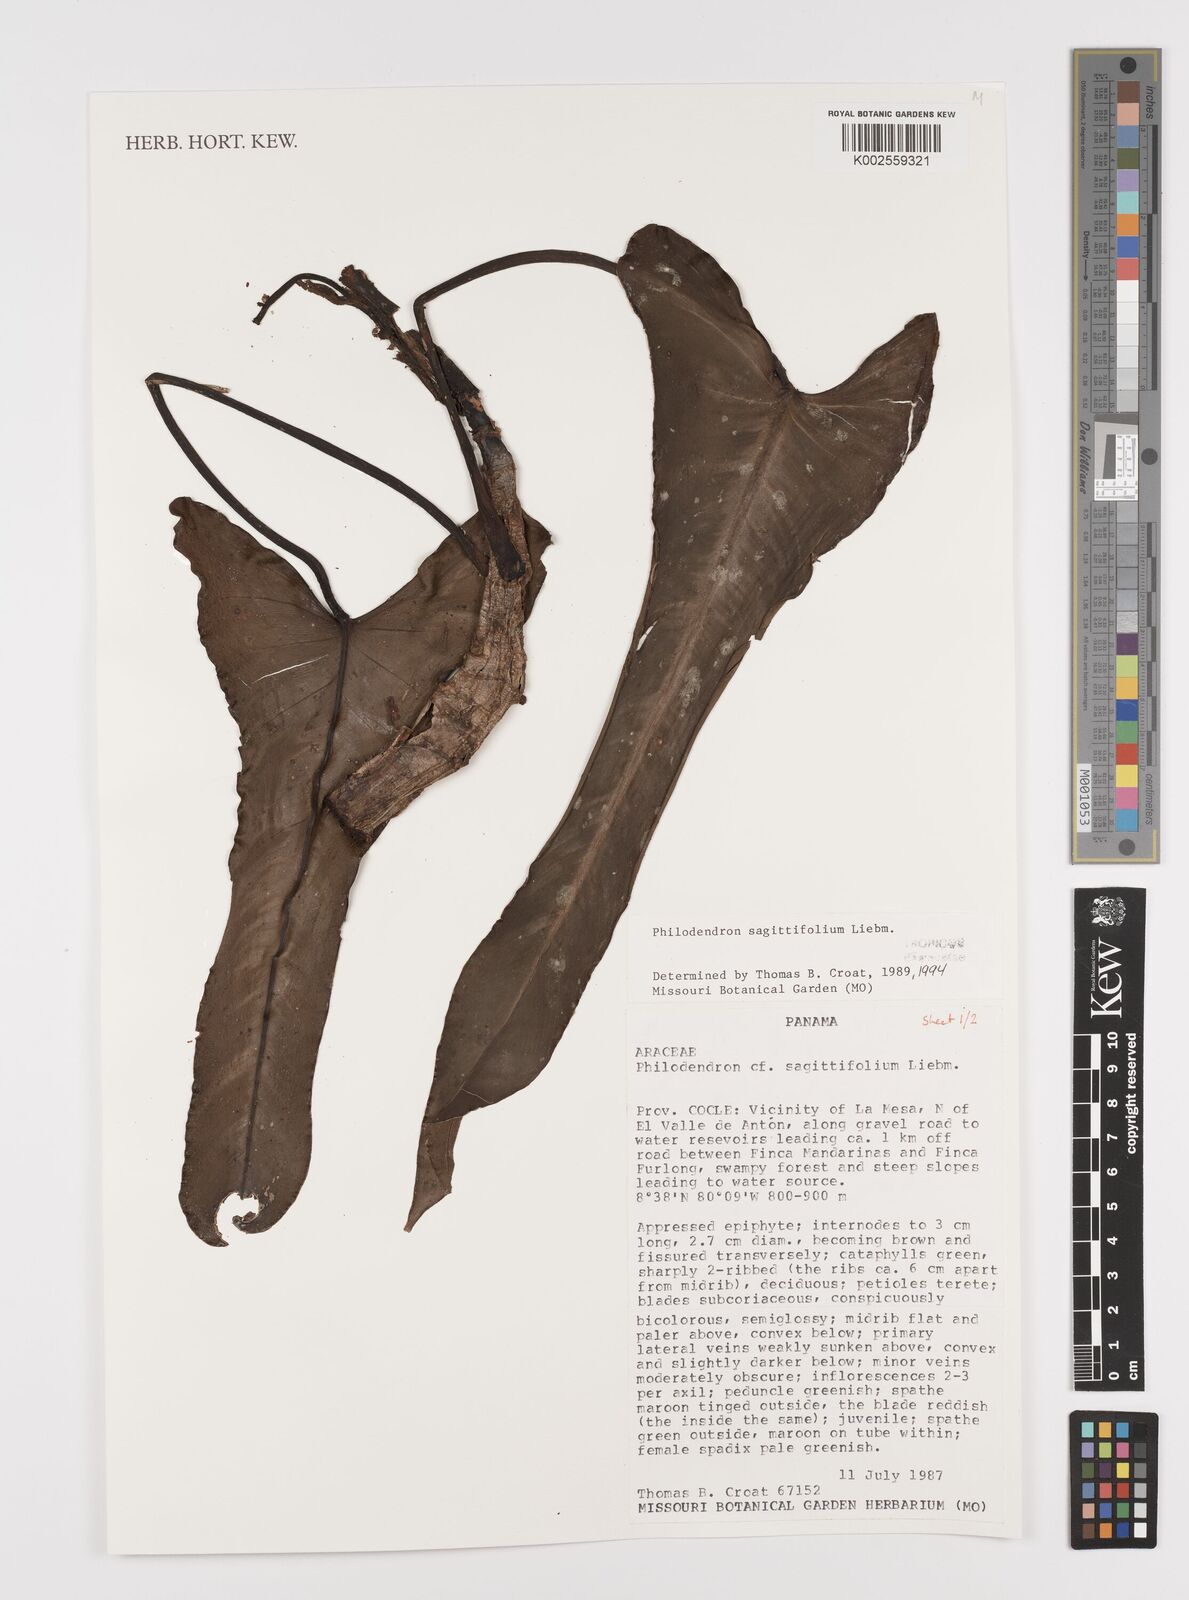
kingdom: Plantae
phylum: Tracheophyta
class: Liliopsida
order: Alismatales
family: Araceae
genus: Philodendron
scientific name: Philodendron sagittifolium
